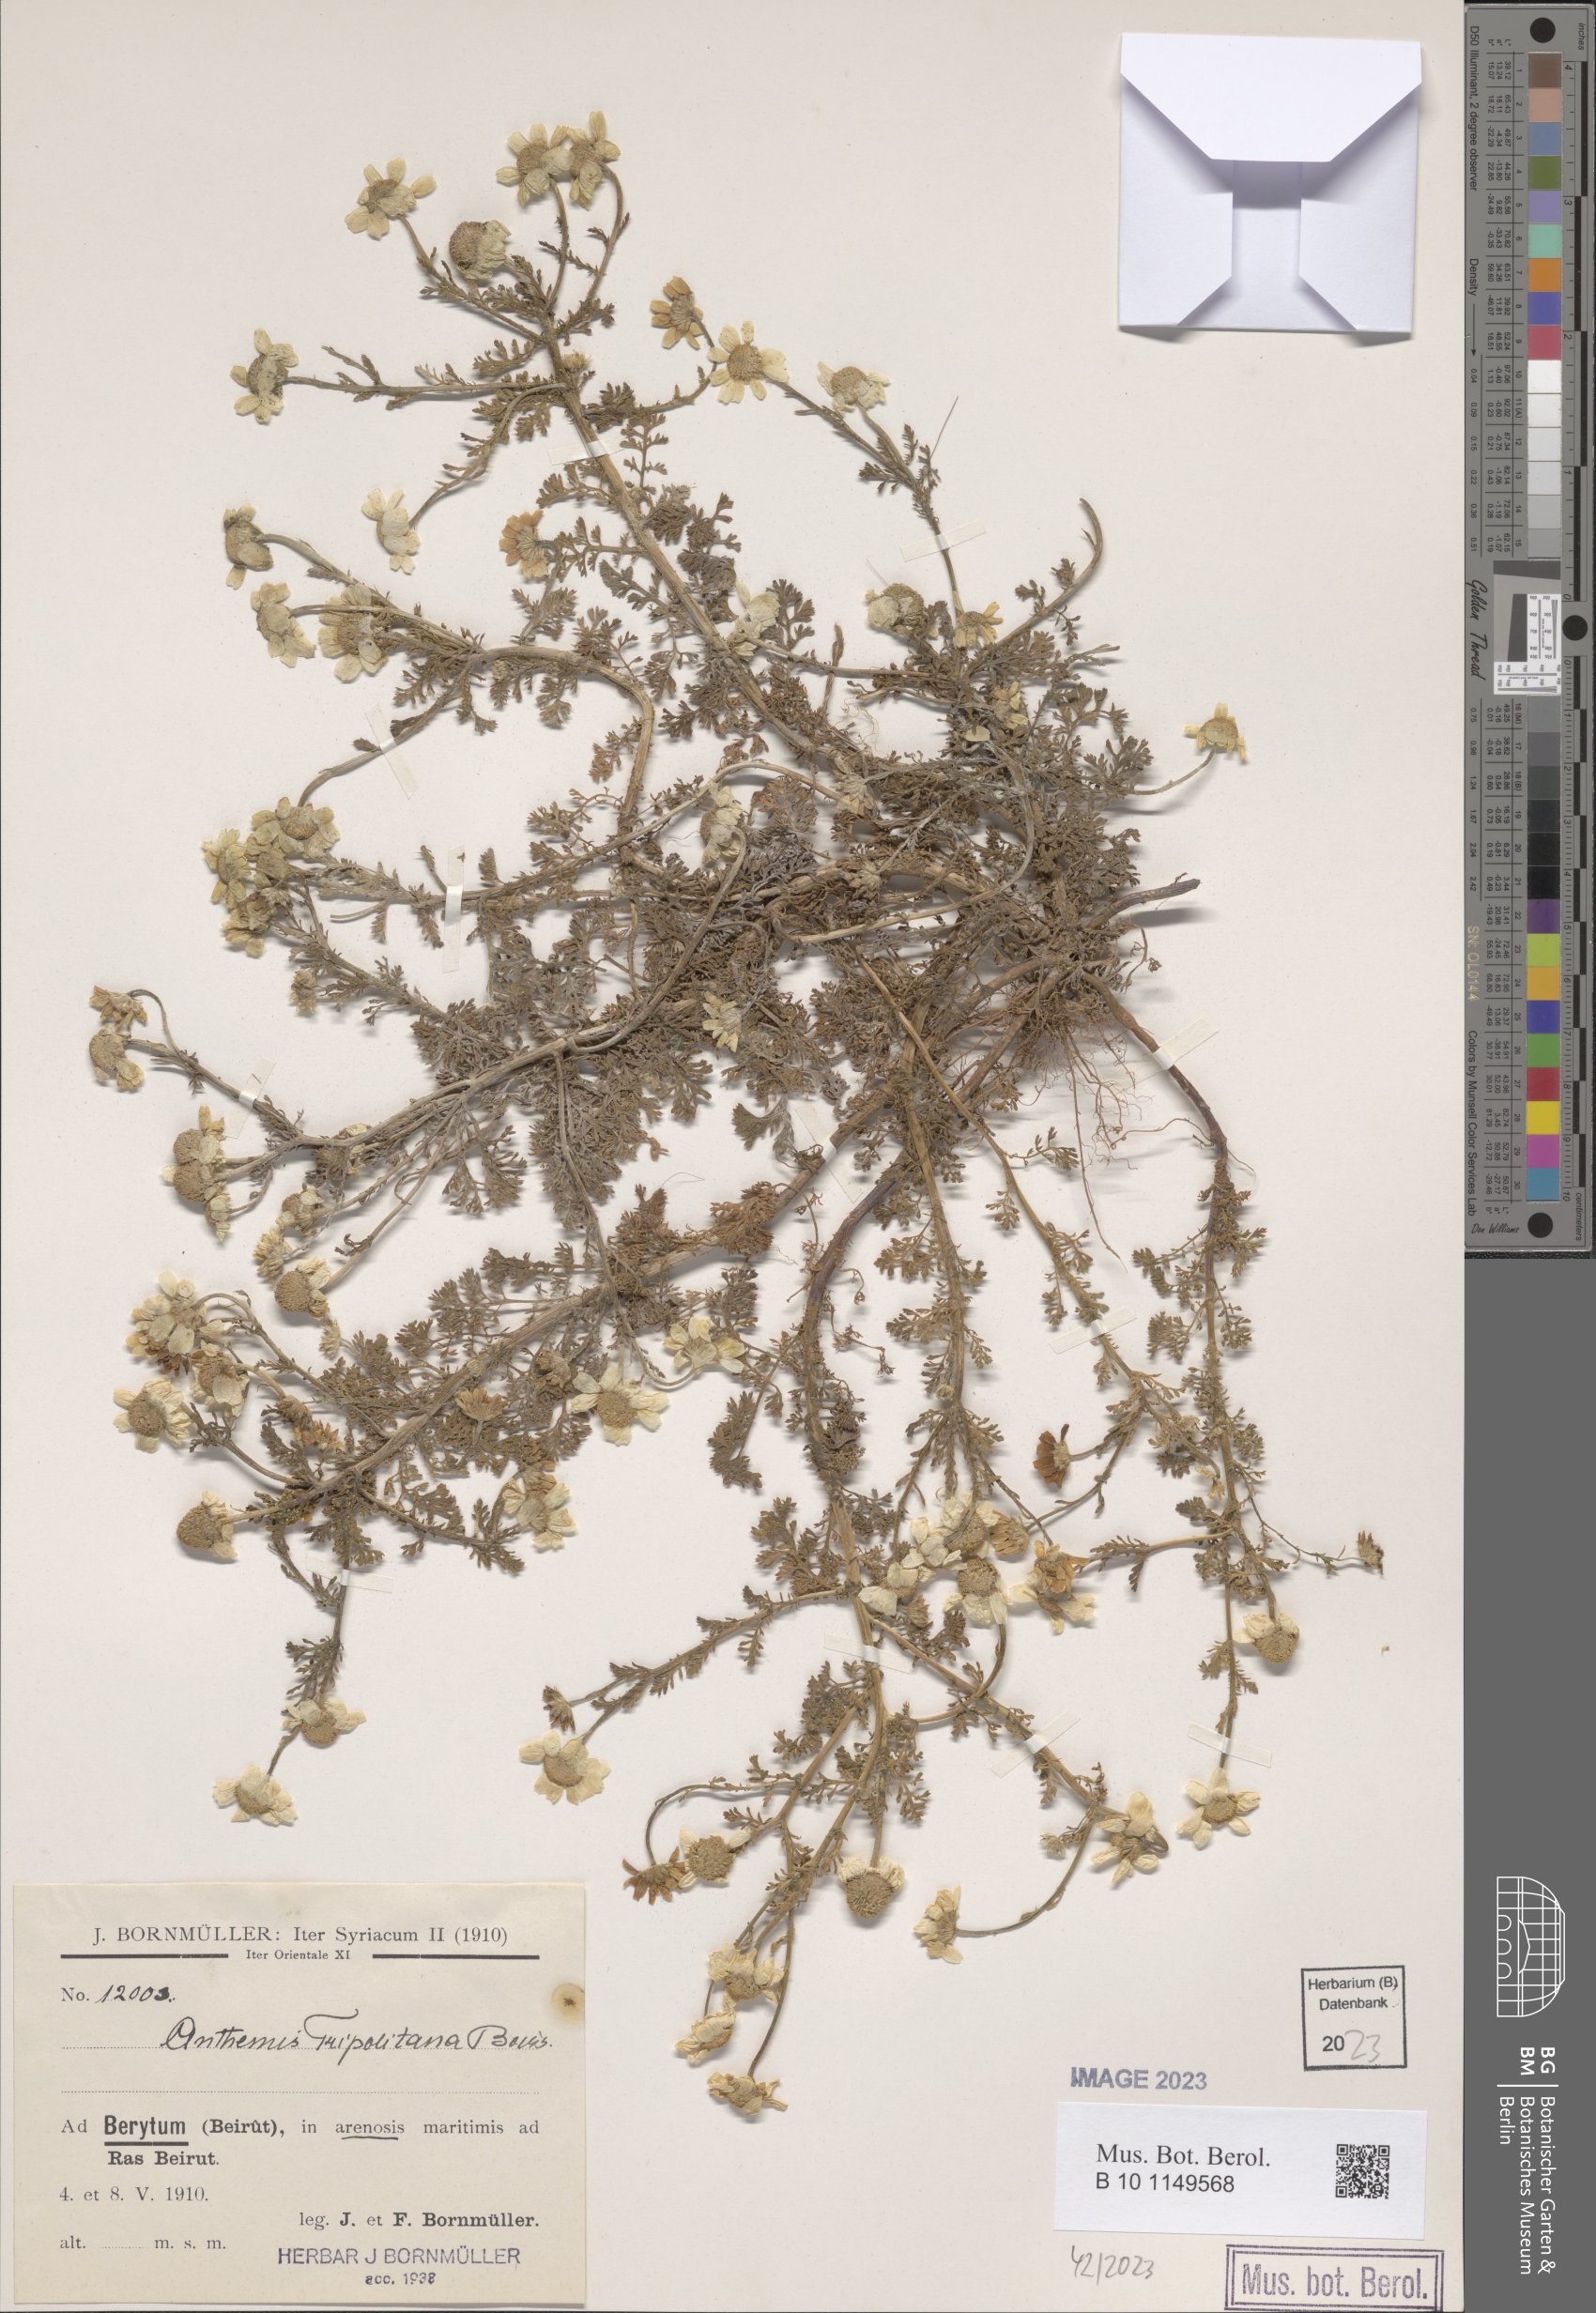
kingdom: Plantae
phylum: Tracheophyta
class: Magnoliopsida
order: Asterales
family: Asteraceae
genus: Anthemis
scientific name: Anthemis tripolitana
